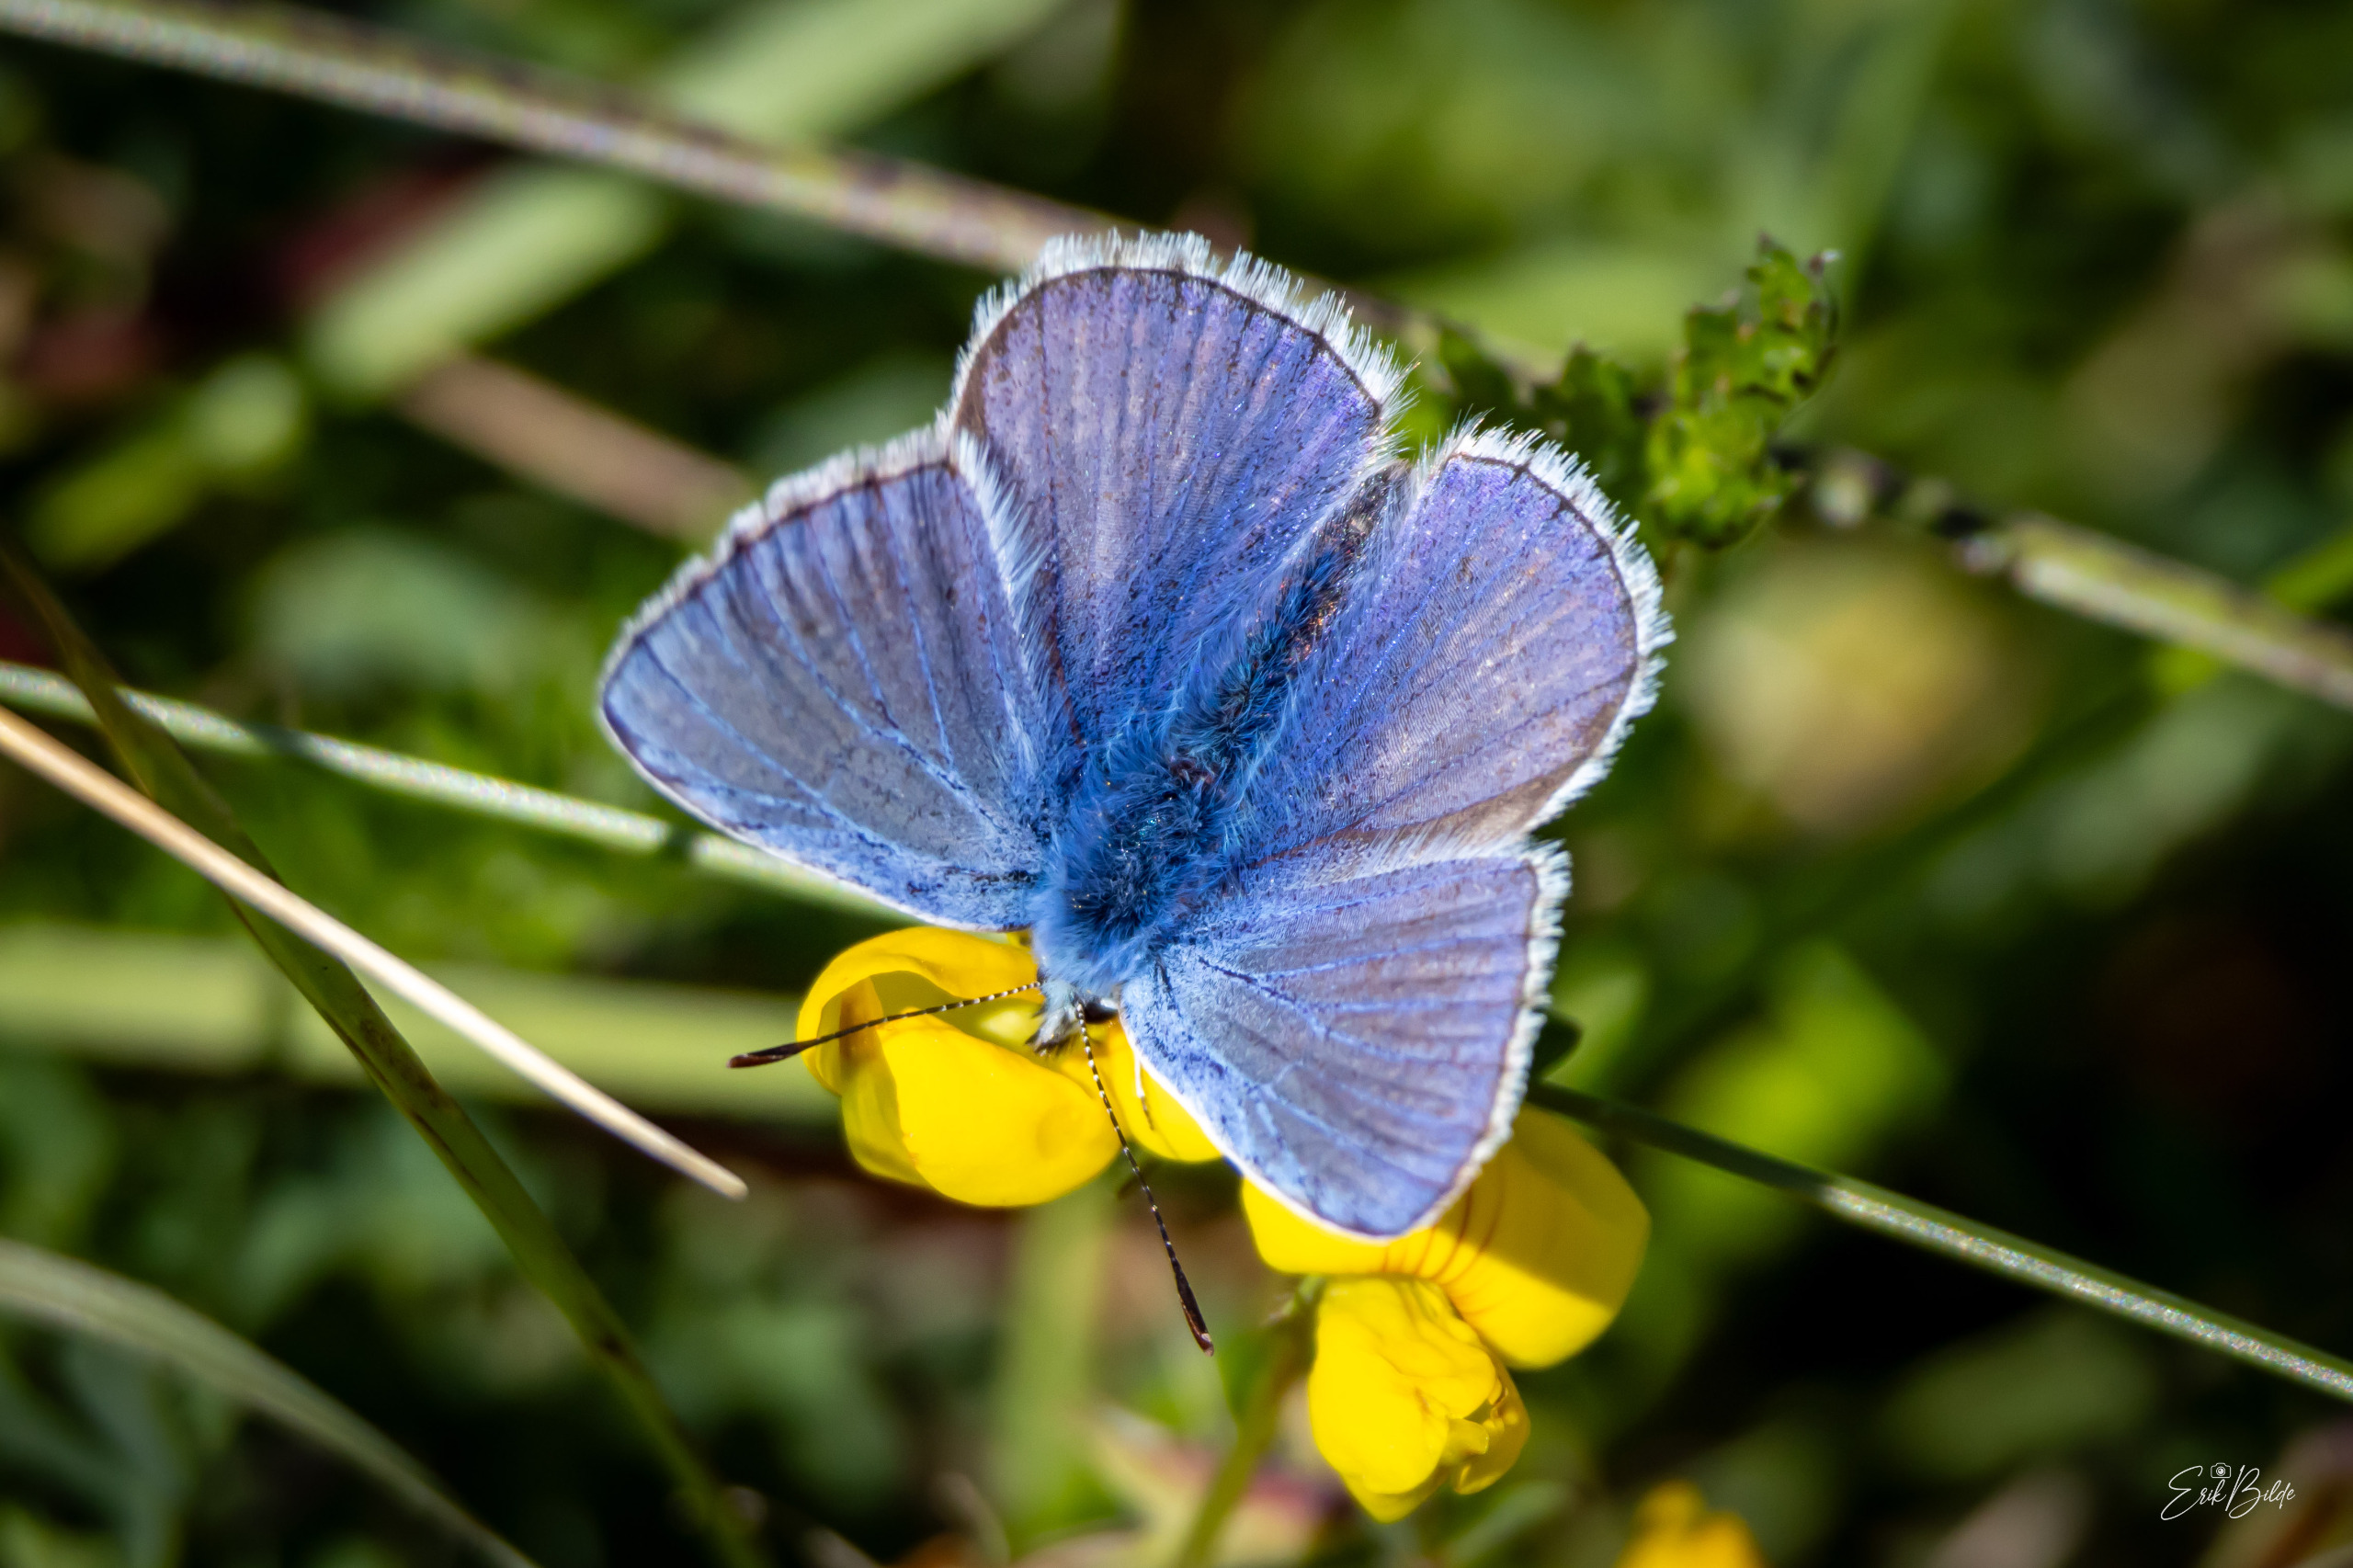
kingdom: Animalia
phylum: Arthropoda
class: Insecta
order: Lepidoptera
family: Lycaenidae
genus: Polyommatus
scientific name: Polyommatus icarus
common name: Almindelig blåfugl
